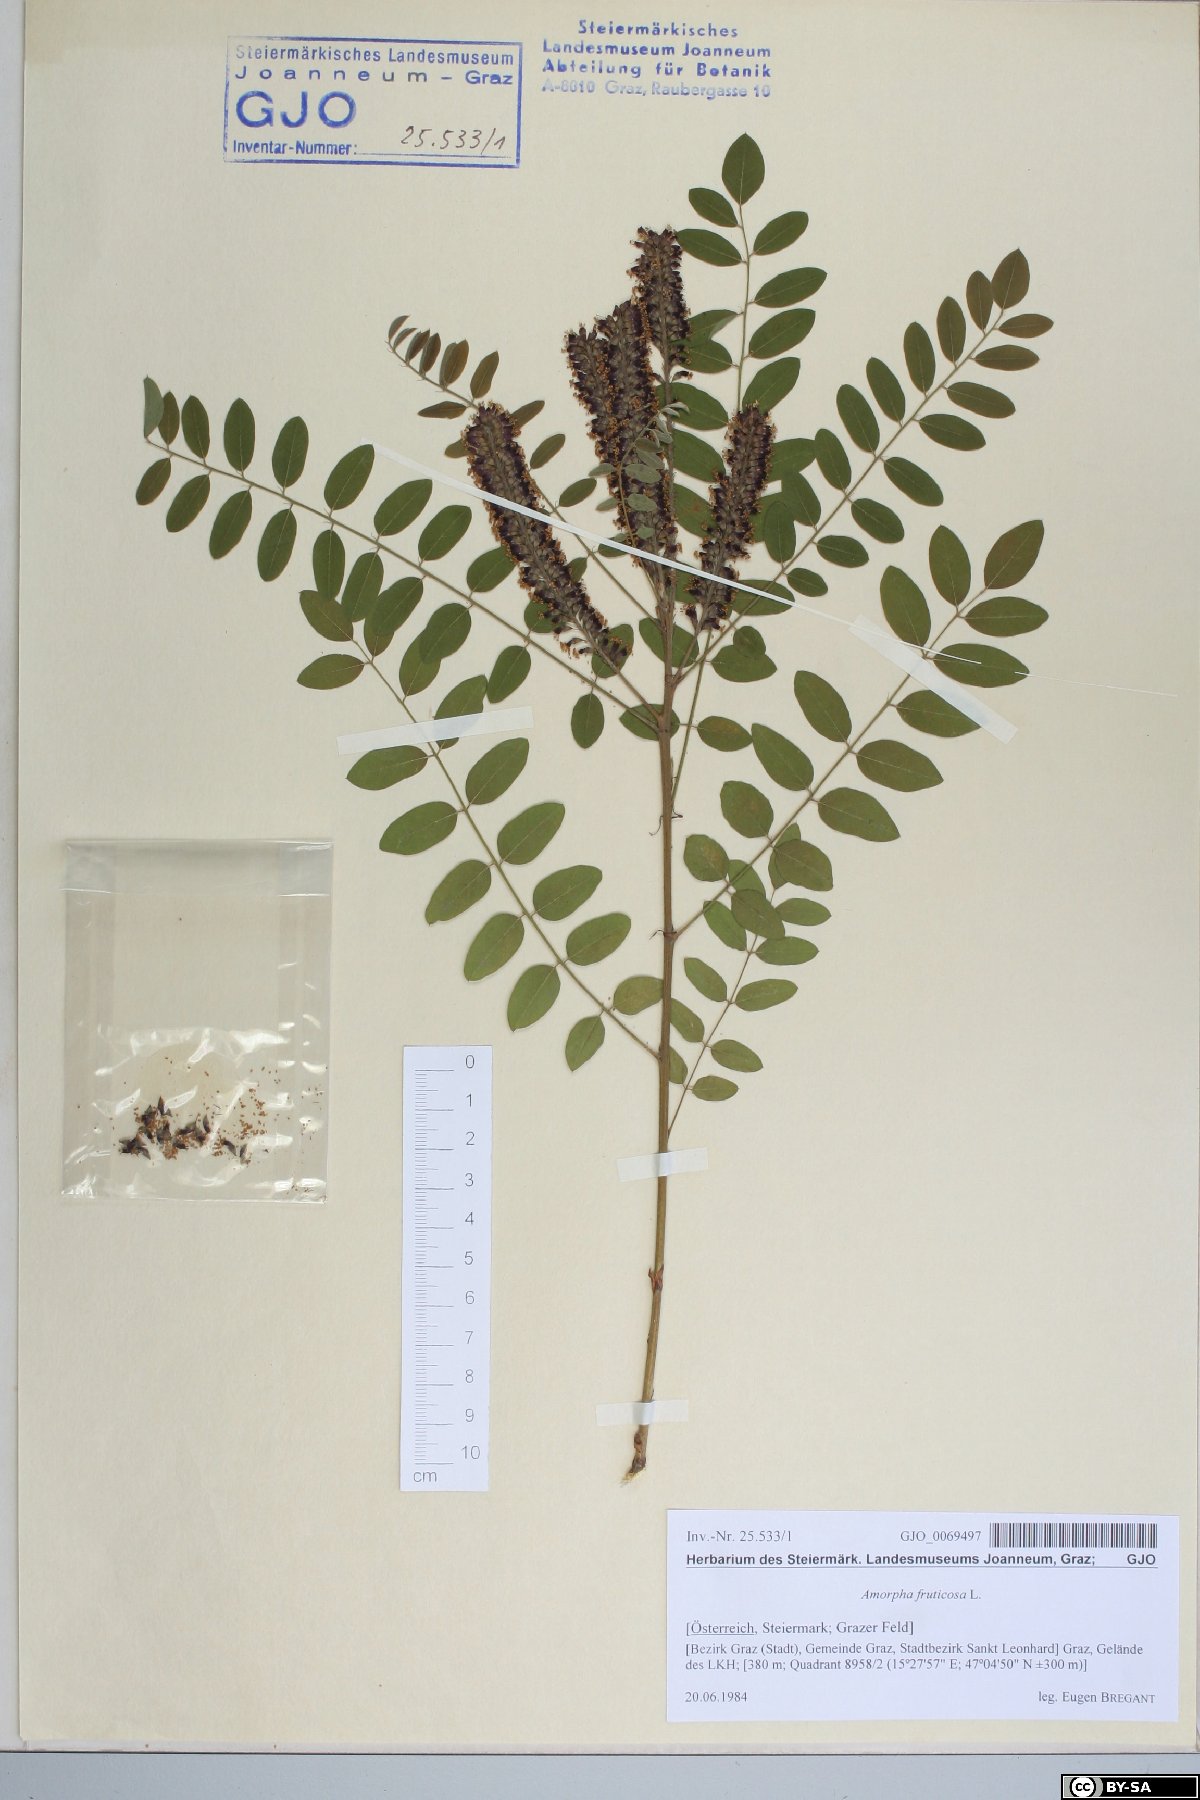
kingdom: Plantae
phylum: Tracheophyta
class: Magnoliopsida
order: Fabales
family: Fabaceae
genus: Amorpha
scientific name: Amorpha fruticosa
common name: False indigo
